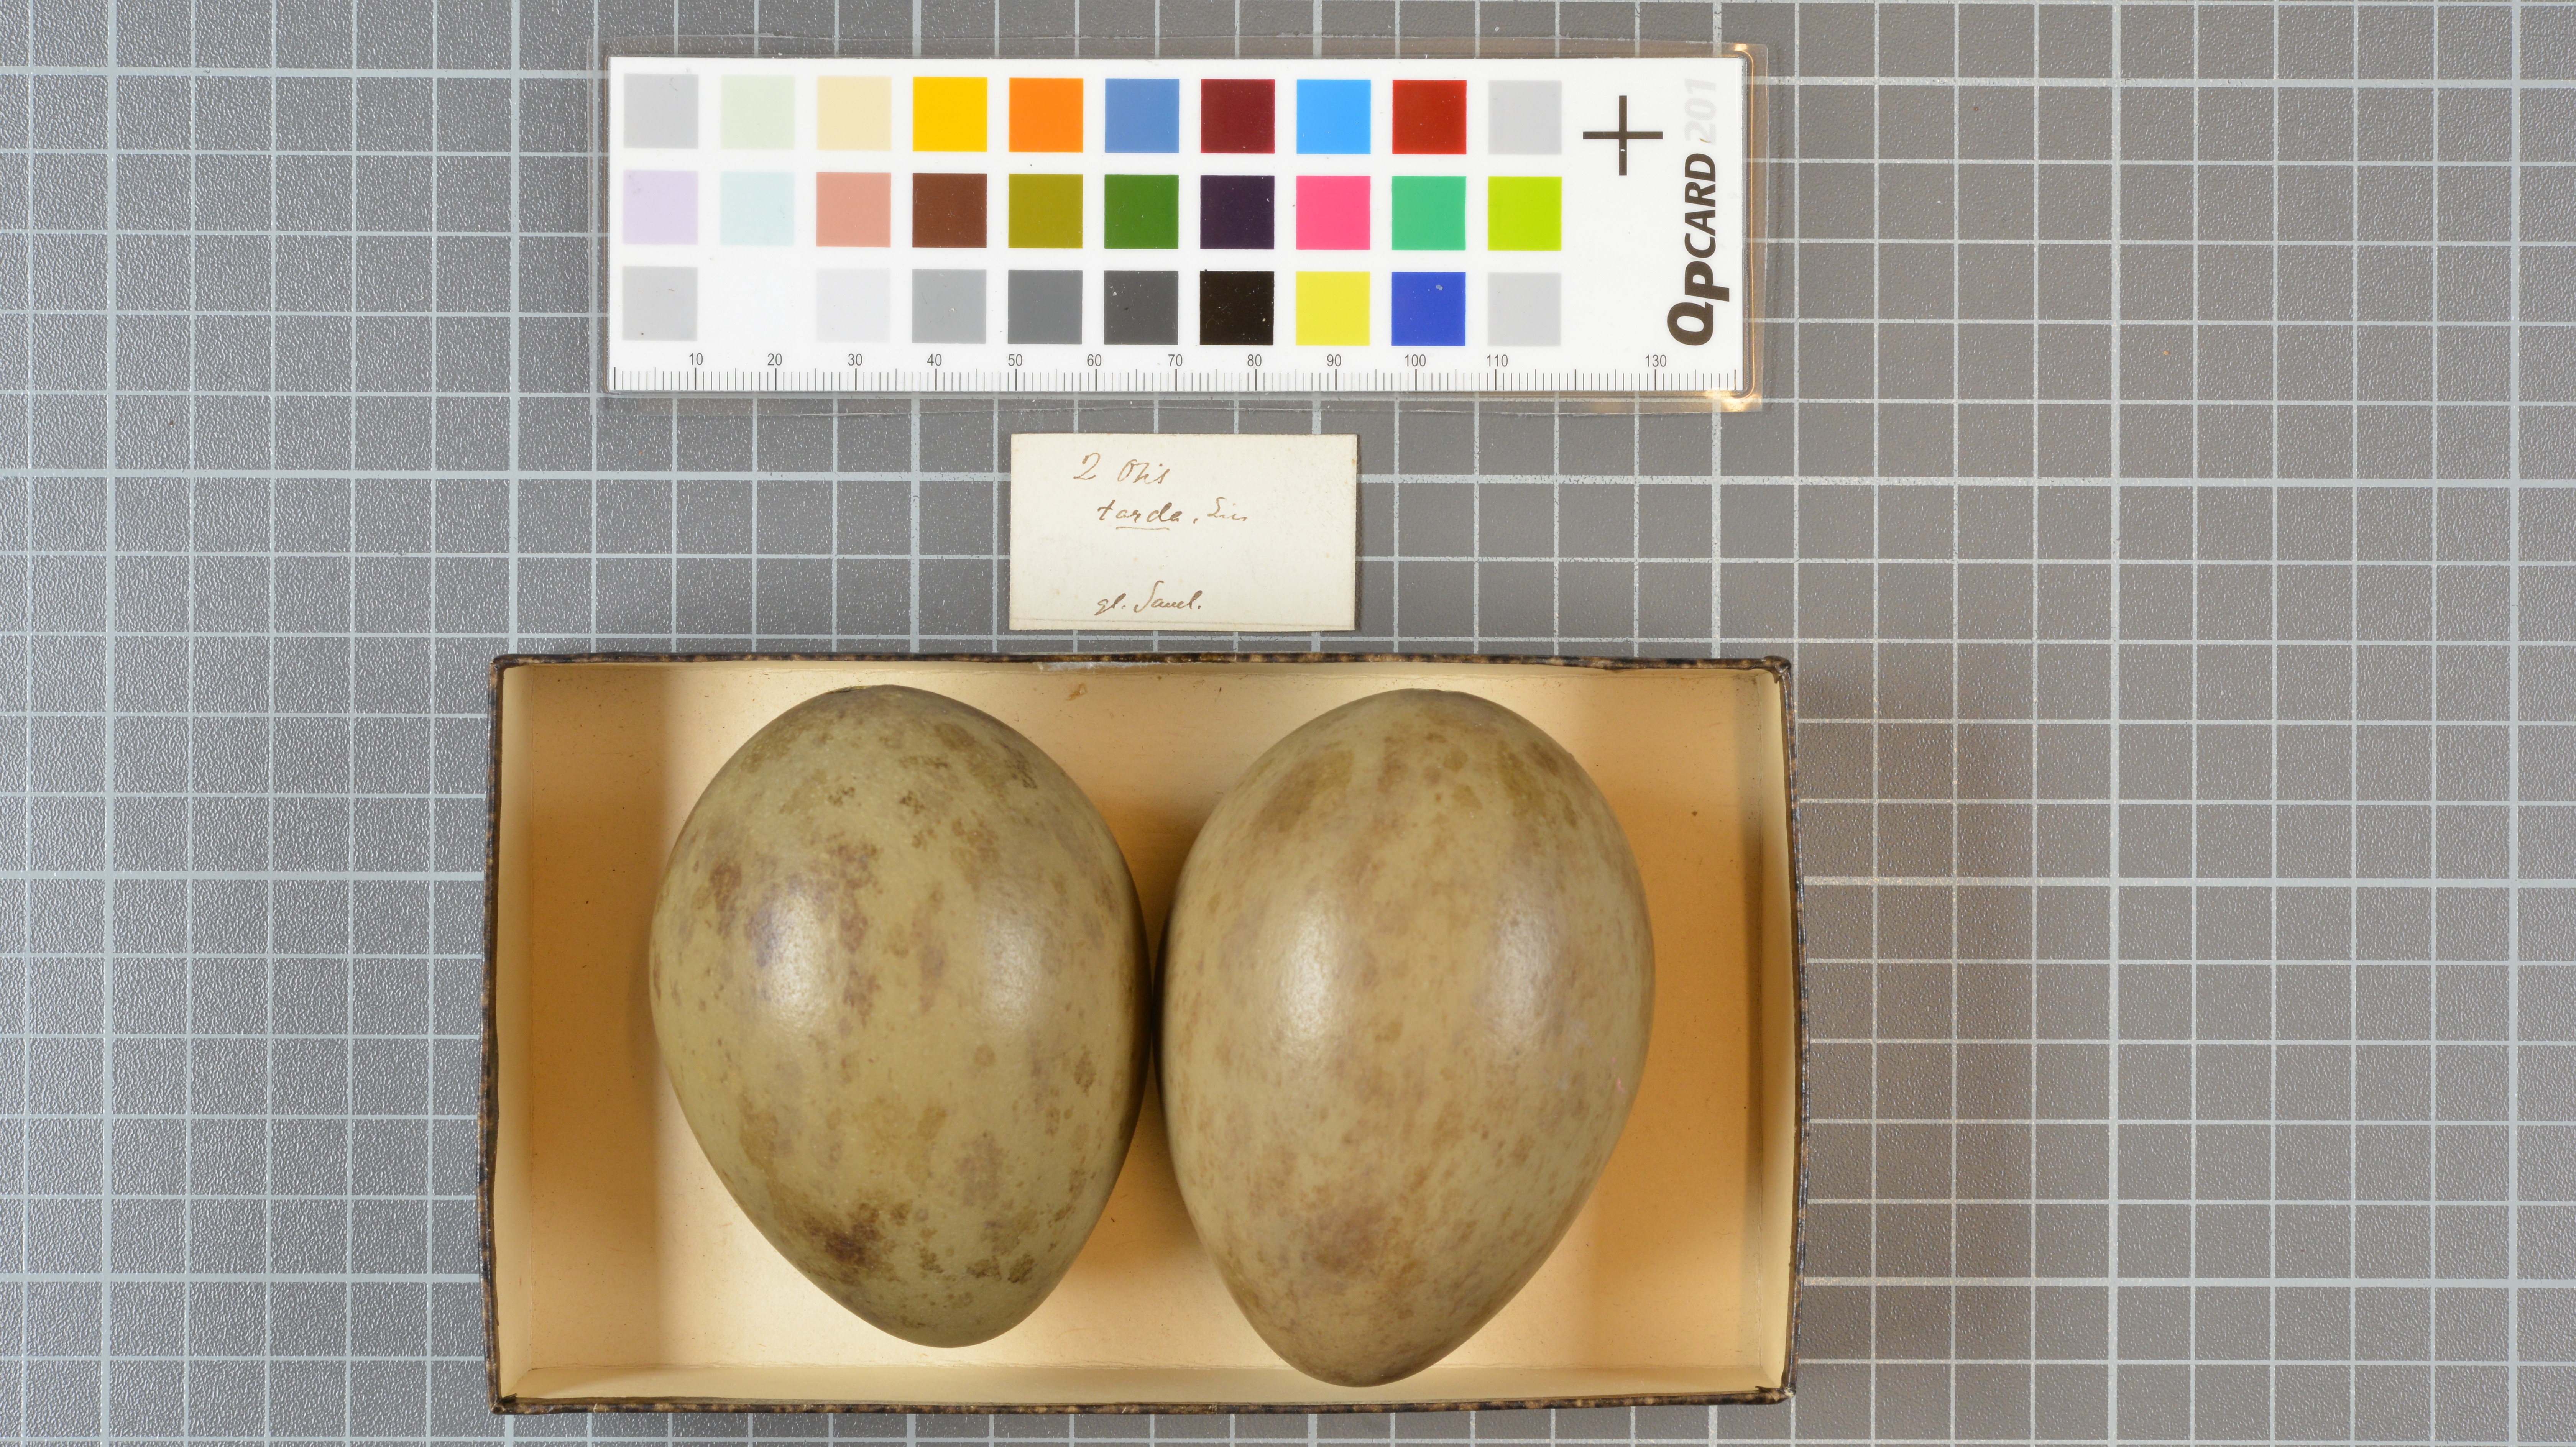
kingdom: Animalia
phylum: Chordata
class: Aves
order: Otidiformes
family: Otididae
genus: Otis
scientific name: Otis tarda
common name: Great bustard
